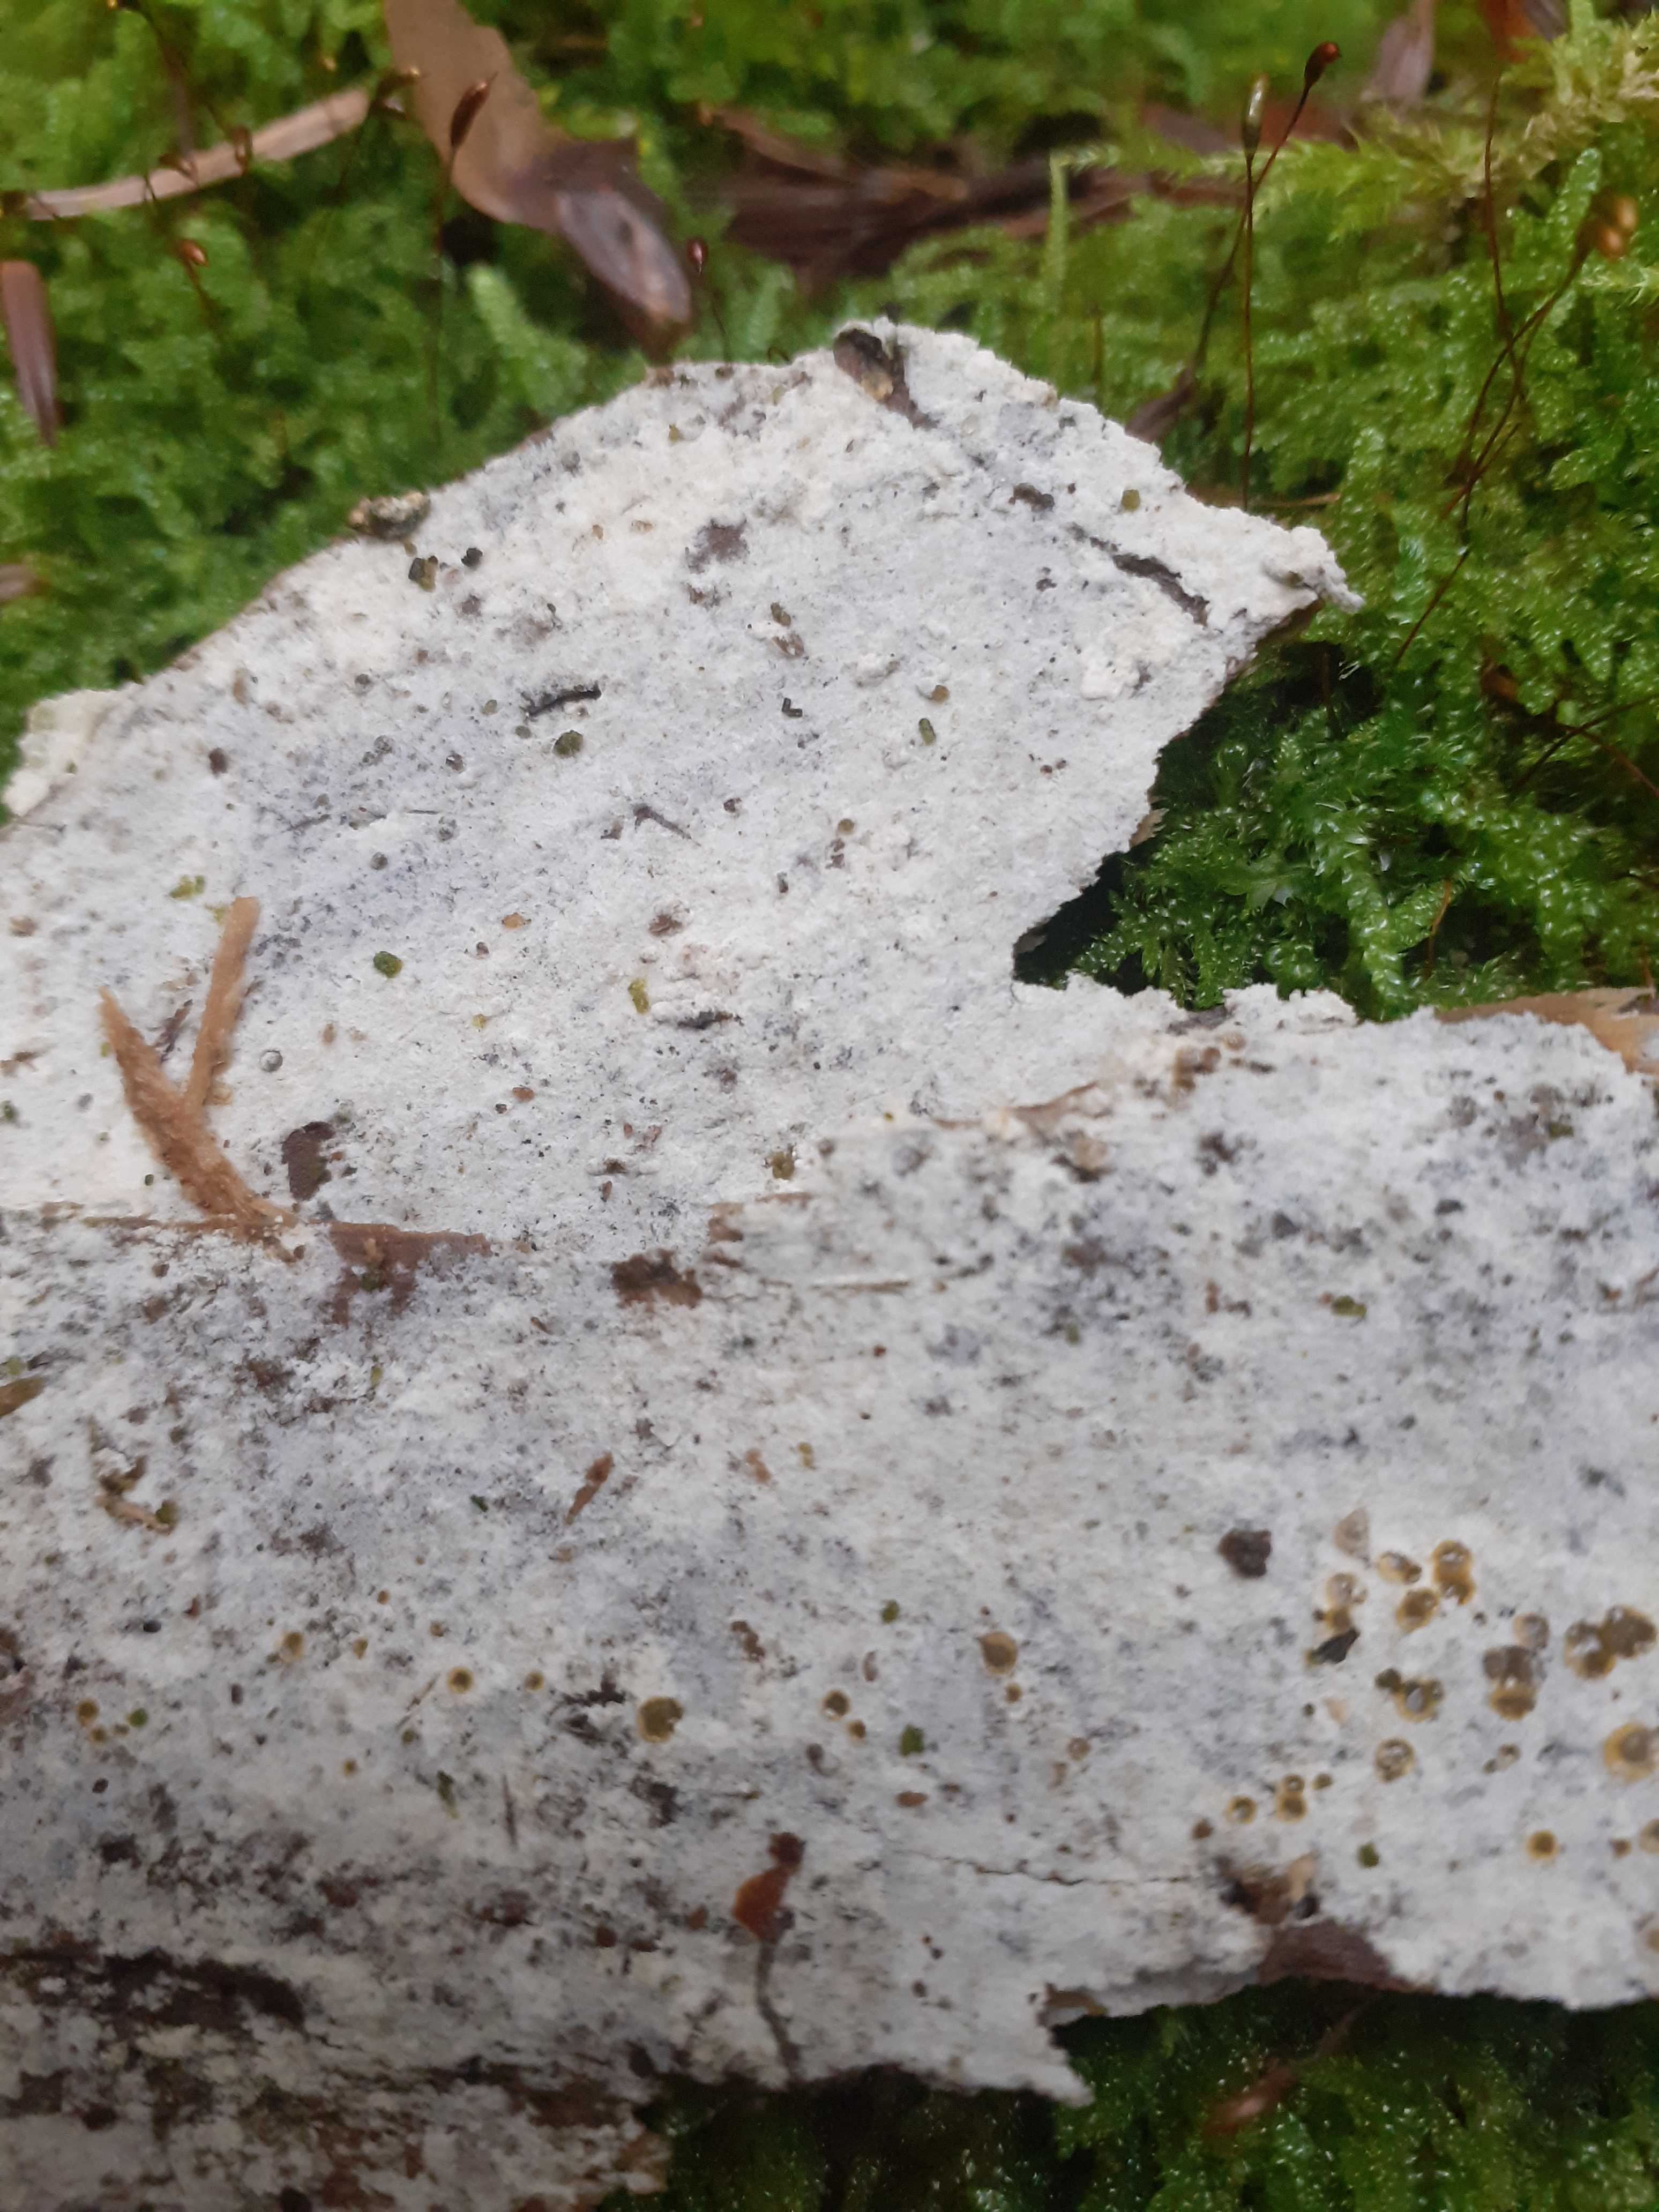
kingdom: Fungi
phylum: Basidiomycota
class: Agaricomycetes
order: Cantharellales
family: Botryobasidiaceae
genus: Botryobasidium
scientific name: Botryobasidium subcoronatum
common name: almindelig spindhinde
